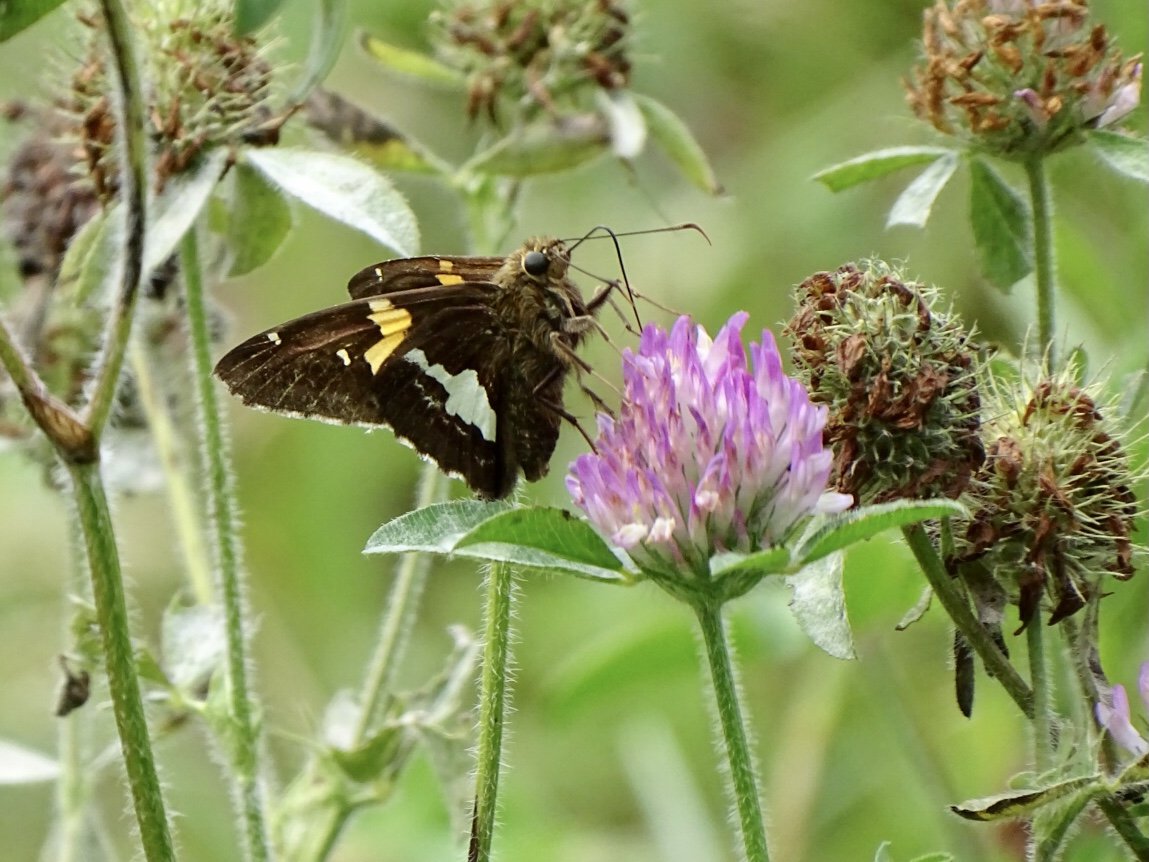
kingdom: Animalia
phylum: Arthropoda
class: Insecta
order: Lepidoptera
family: Hesperiidae
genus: Epargyreus
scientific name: Epargyreus clarus
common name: Silver-spotted Skipper
